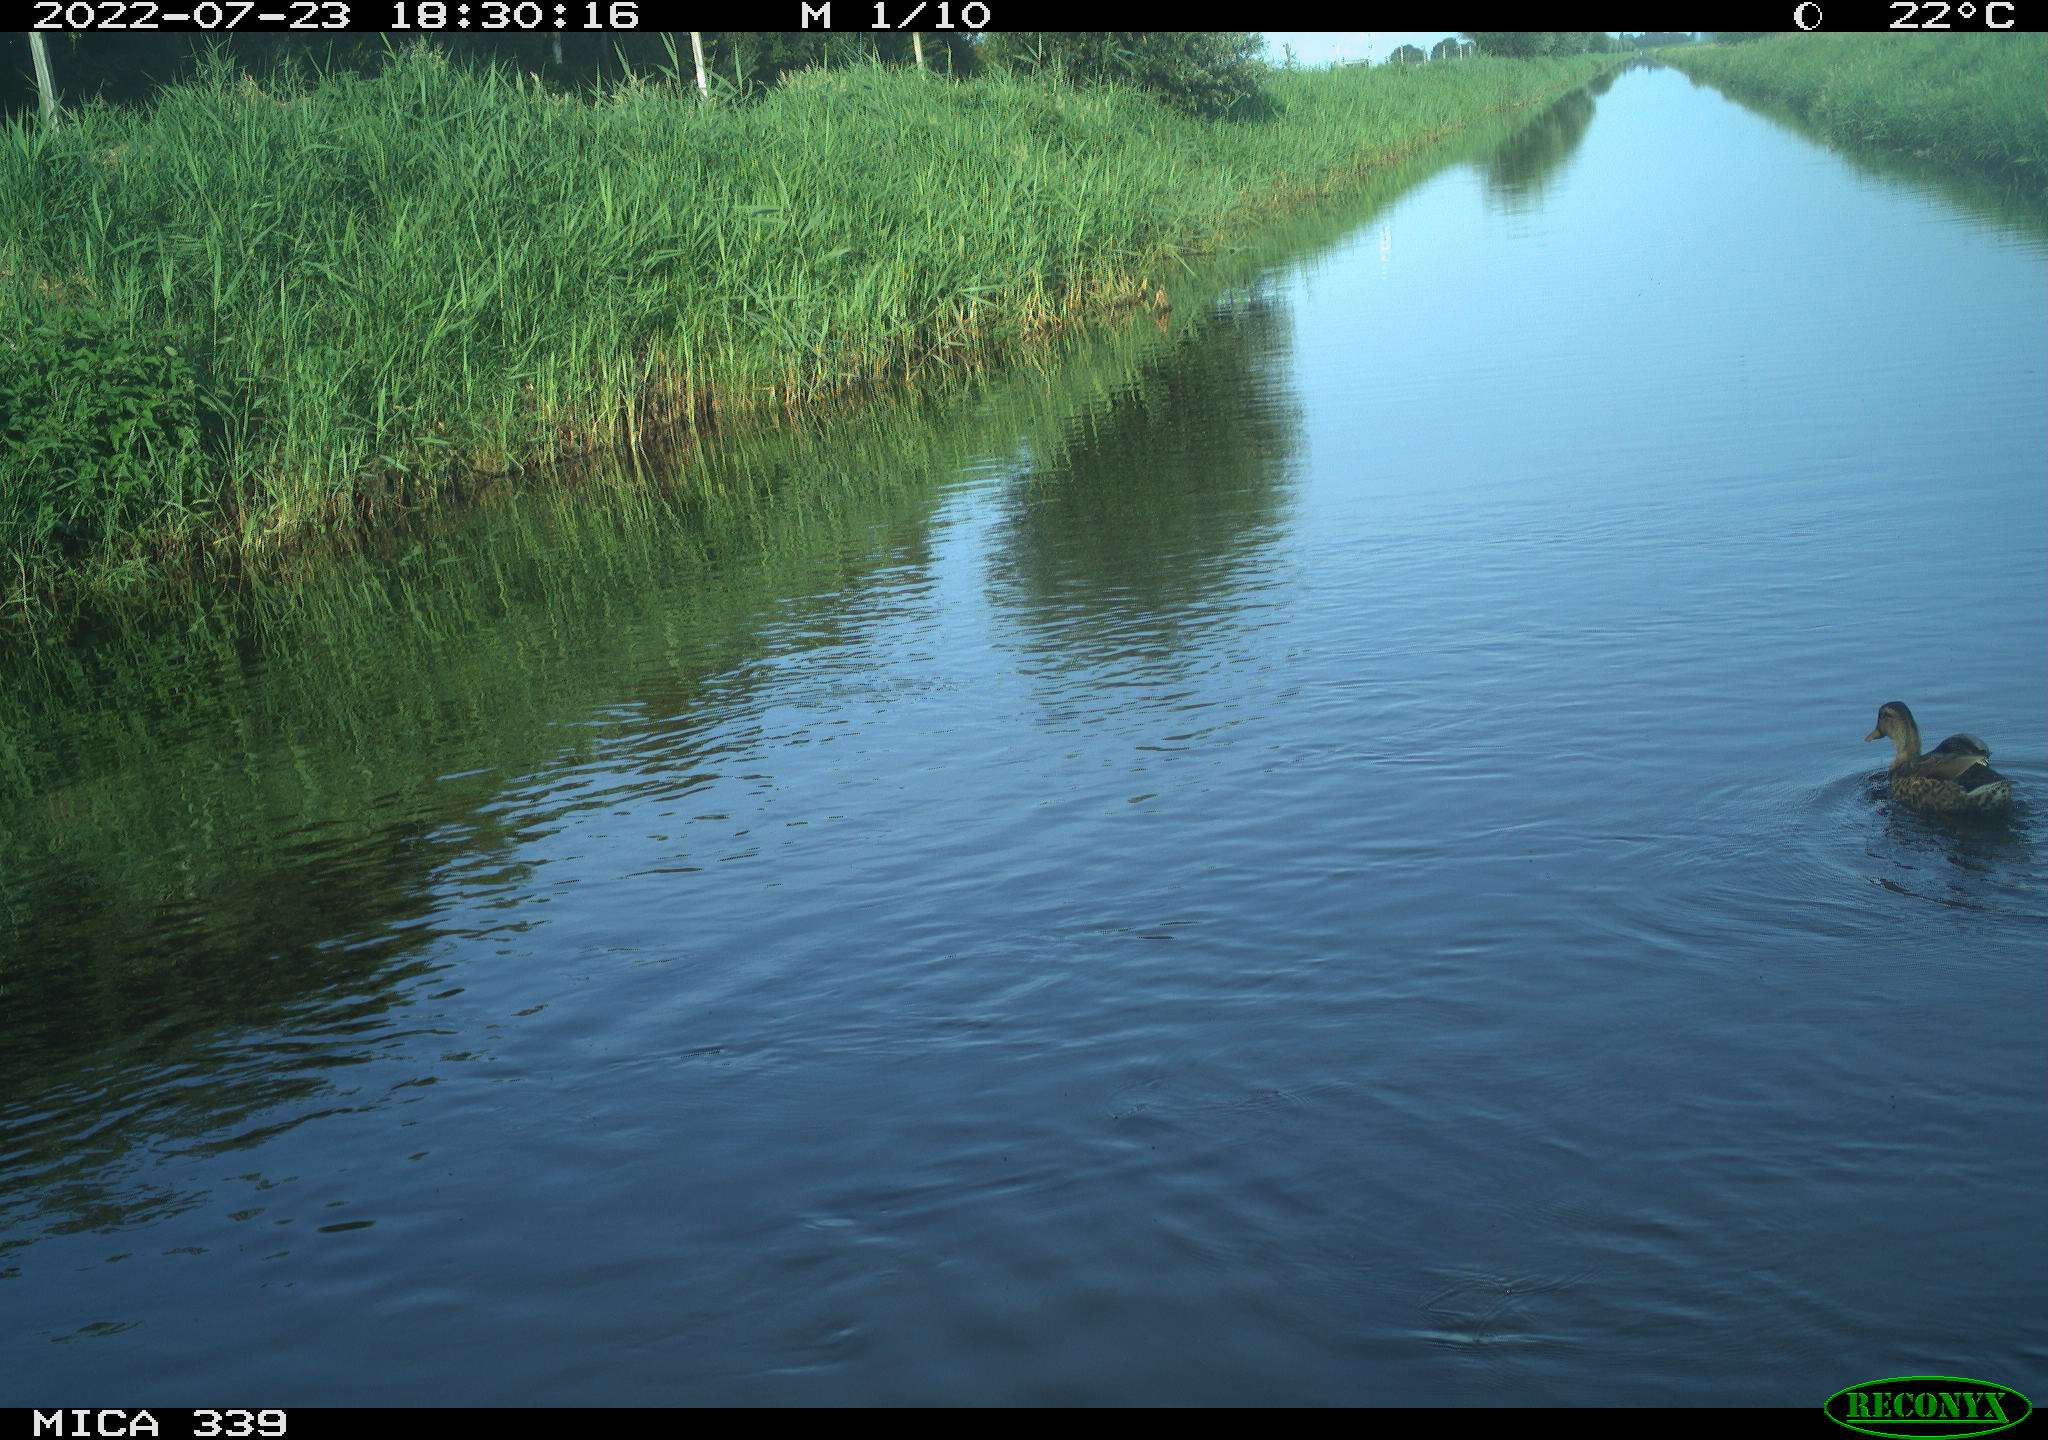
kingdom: Animalia
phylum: Chordata
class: Aves
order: Anseriformes
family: Anatidae
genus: Anas
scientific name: Anas platyrhynchos
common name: Mallard
